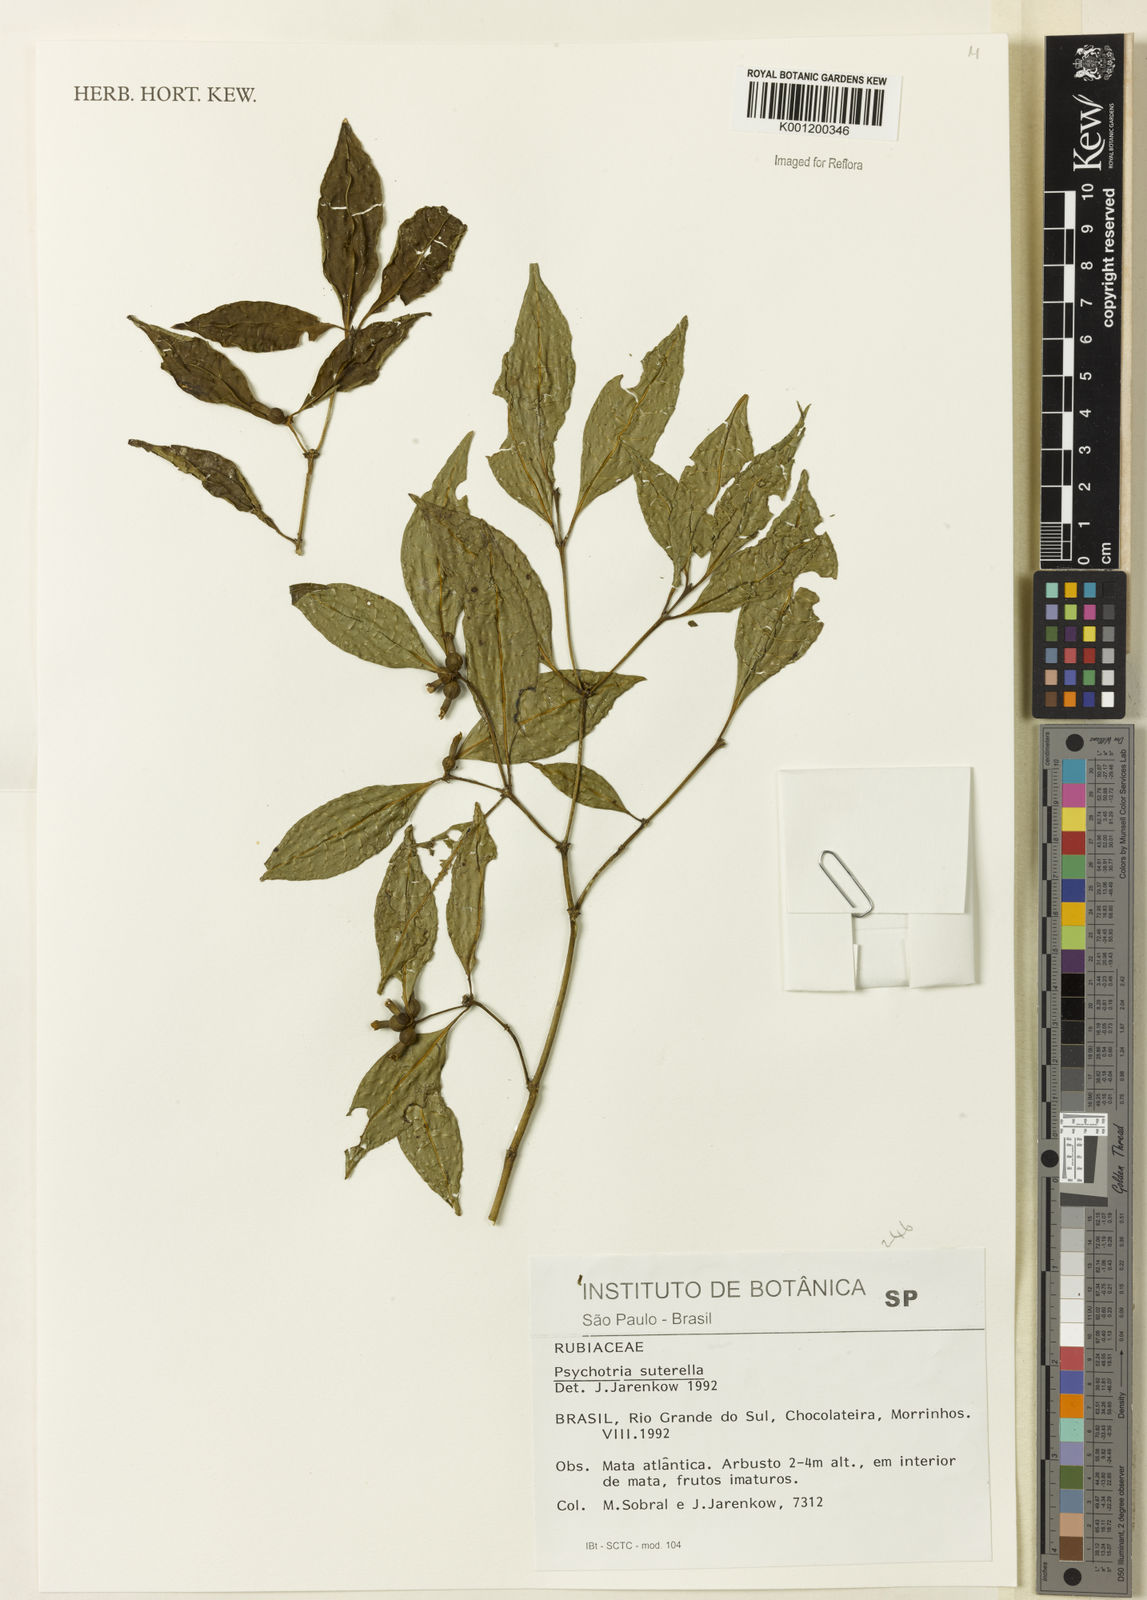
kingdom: Plantae
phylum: Tracheophyta
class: Magnoliopsida
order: Gentianales
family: Rubiaceae
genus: Psychotria
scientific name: Psychotria
